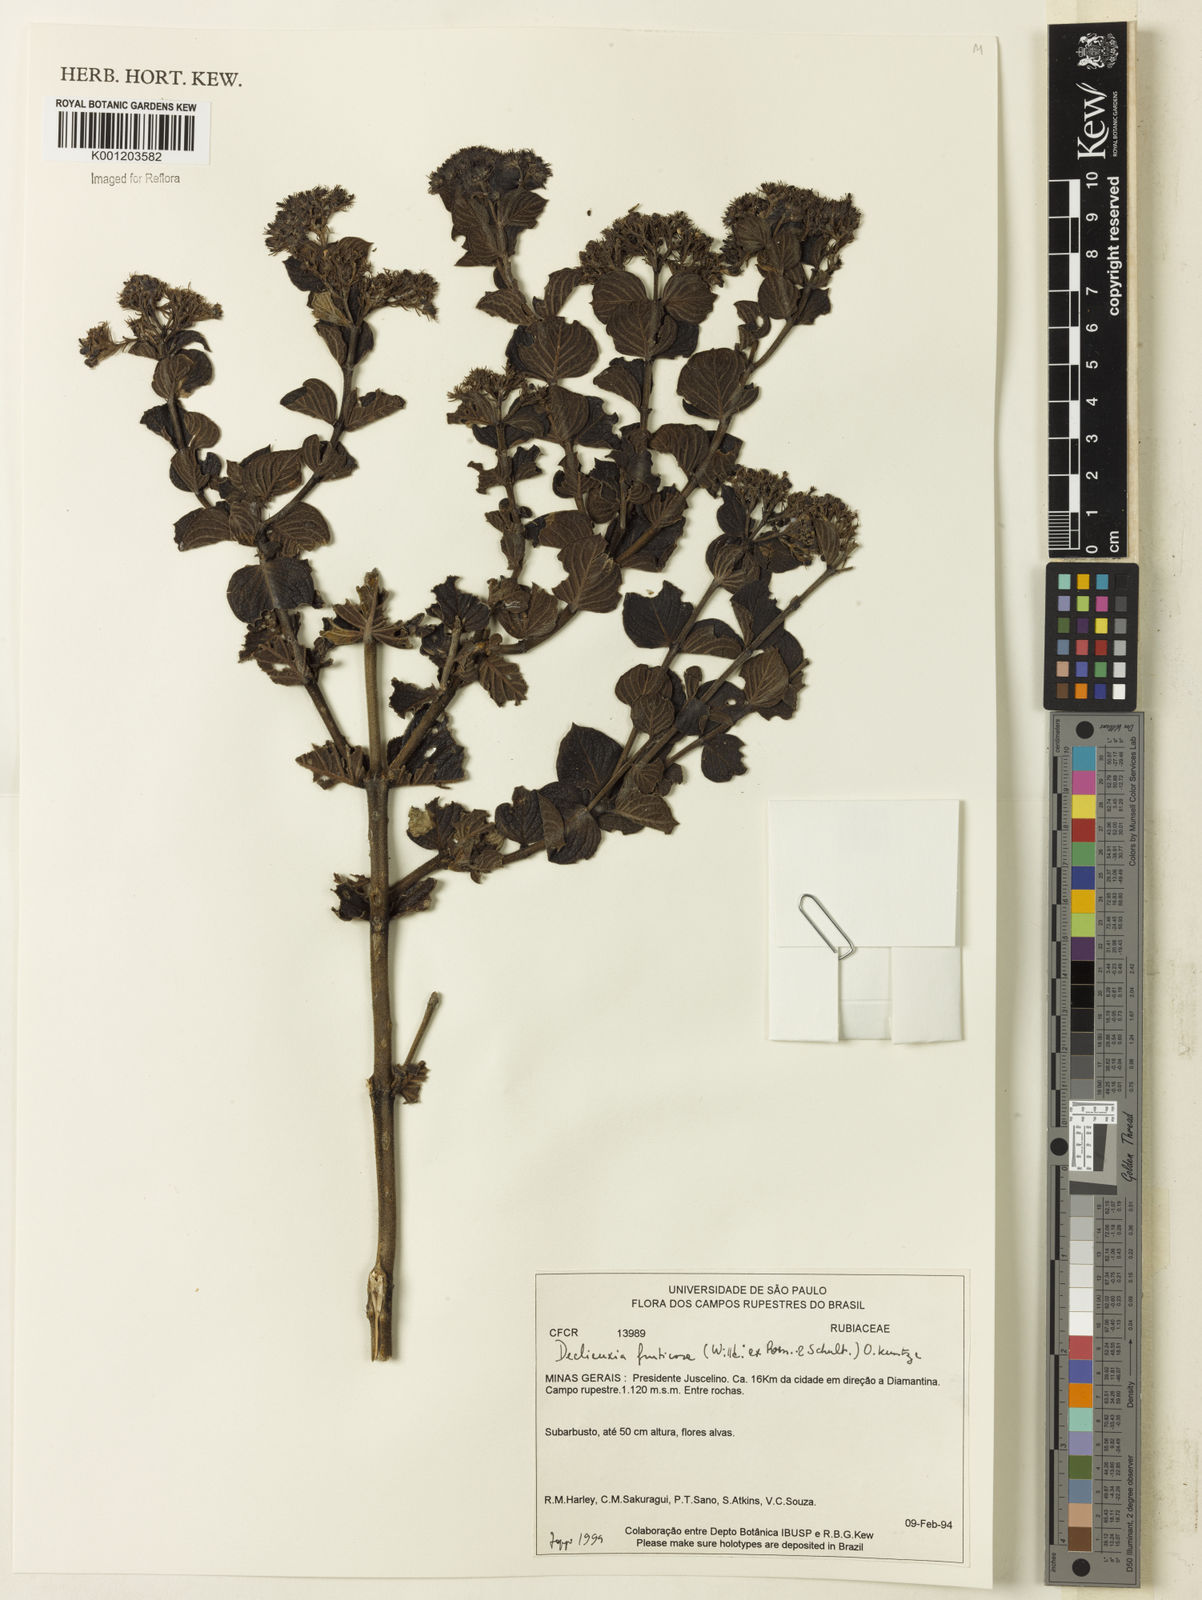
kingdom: Plantae
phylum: Tracheophyta
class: Magnoliopsida
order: Gentianales
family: Rubiaceae
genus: Declieuxia
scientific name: Declieuxia fruticosa
